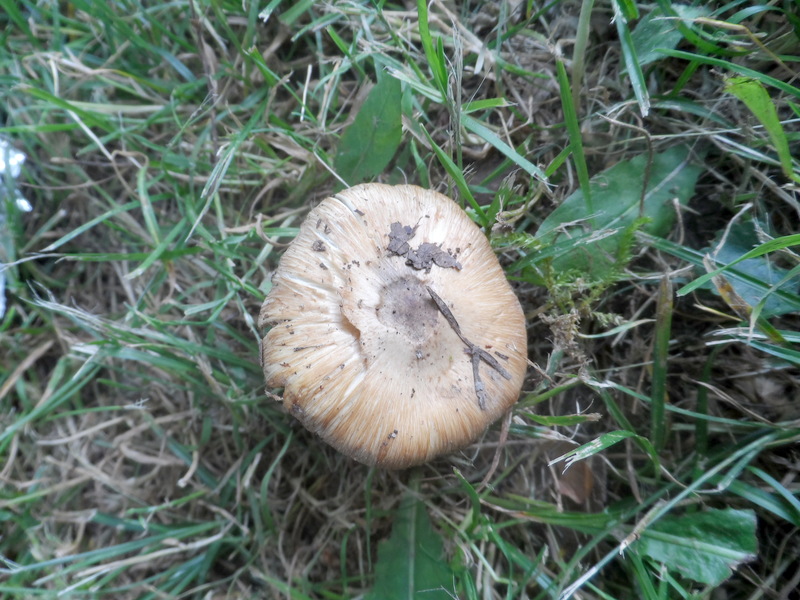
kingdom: Fungi
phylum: Basidiomycota
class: Agaricomycetes
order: Agaricales
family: Inocybaceae
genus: Inocybe
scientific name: Inocybe oblectabilis
